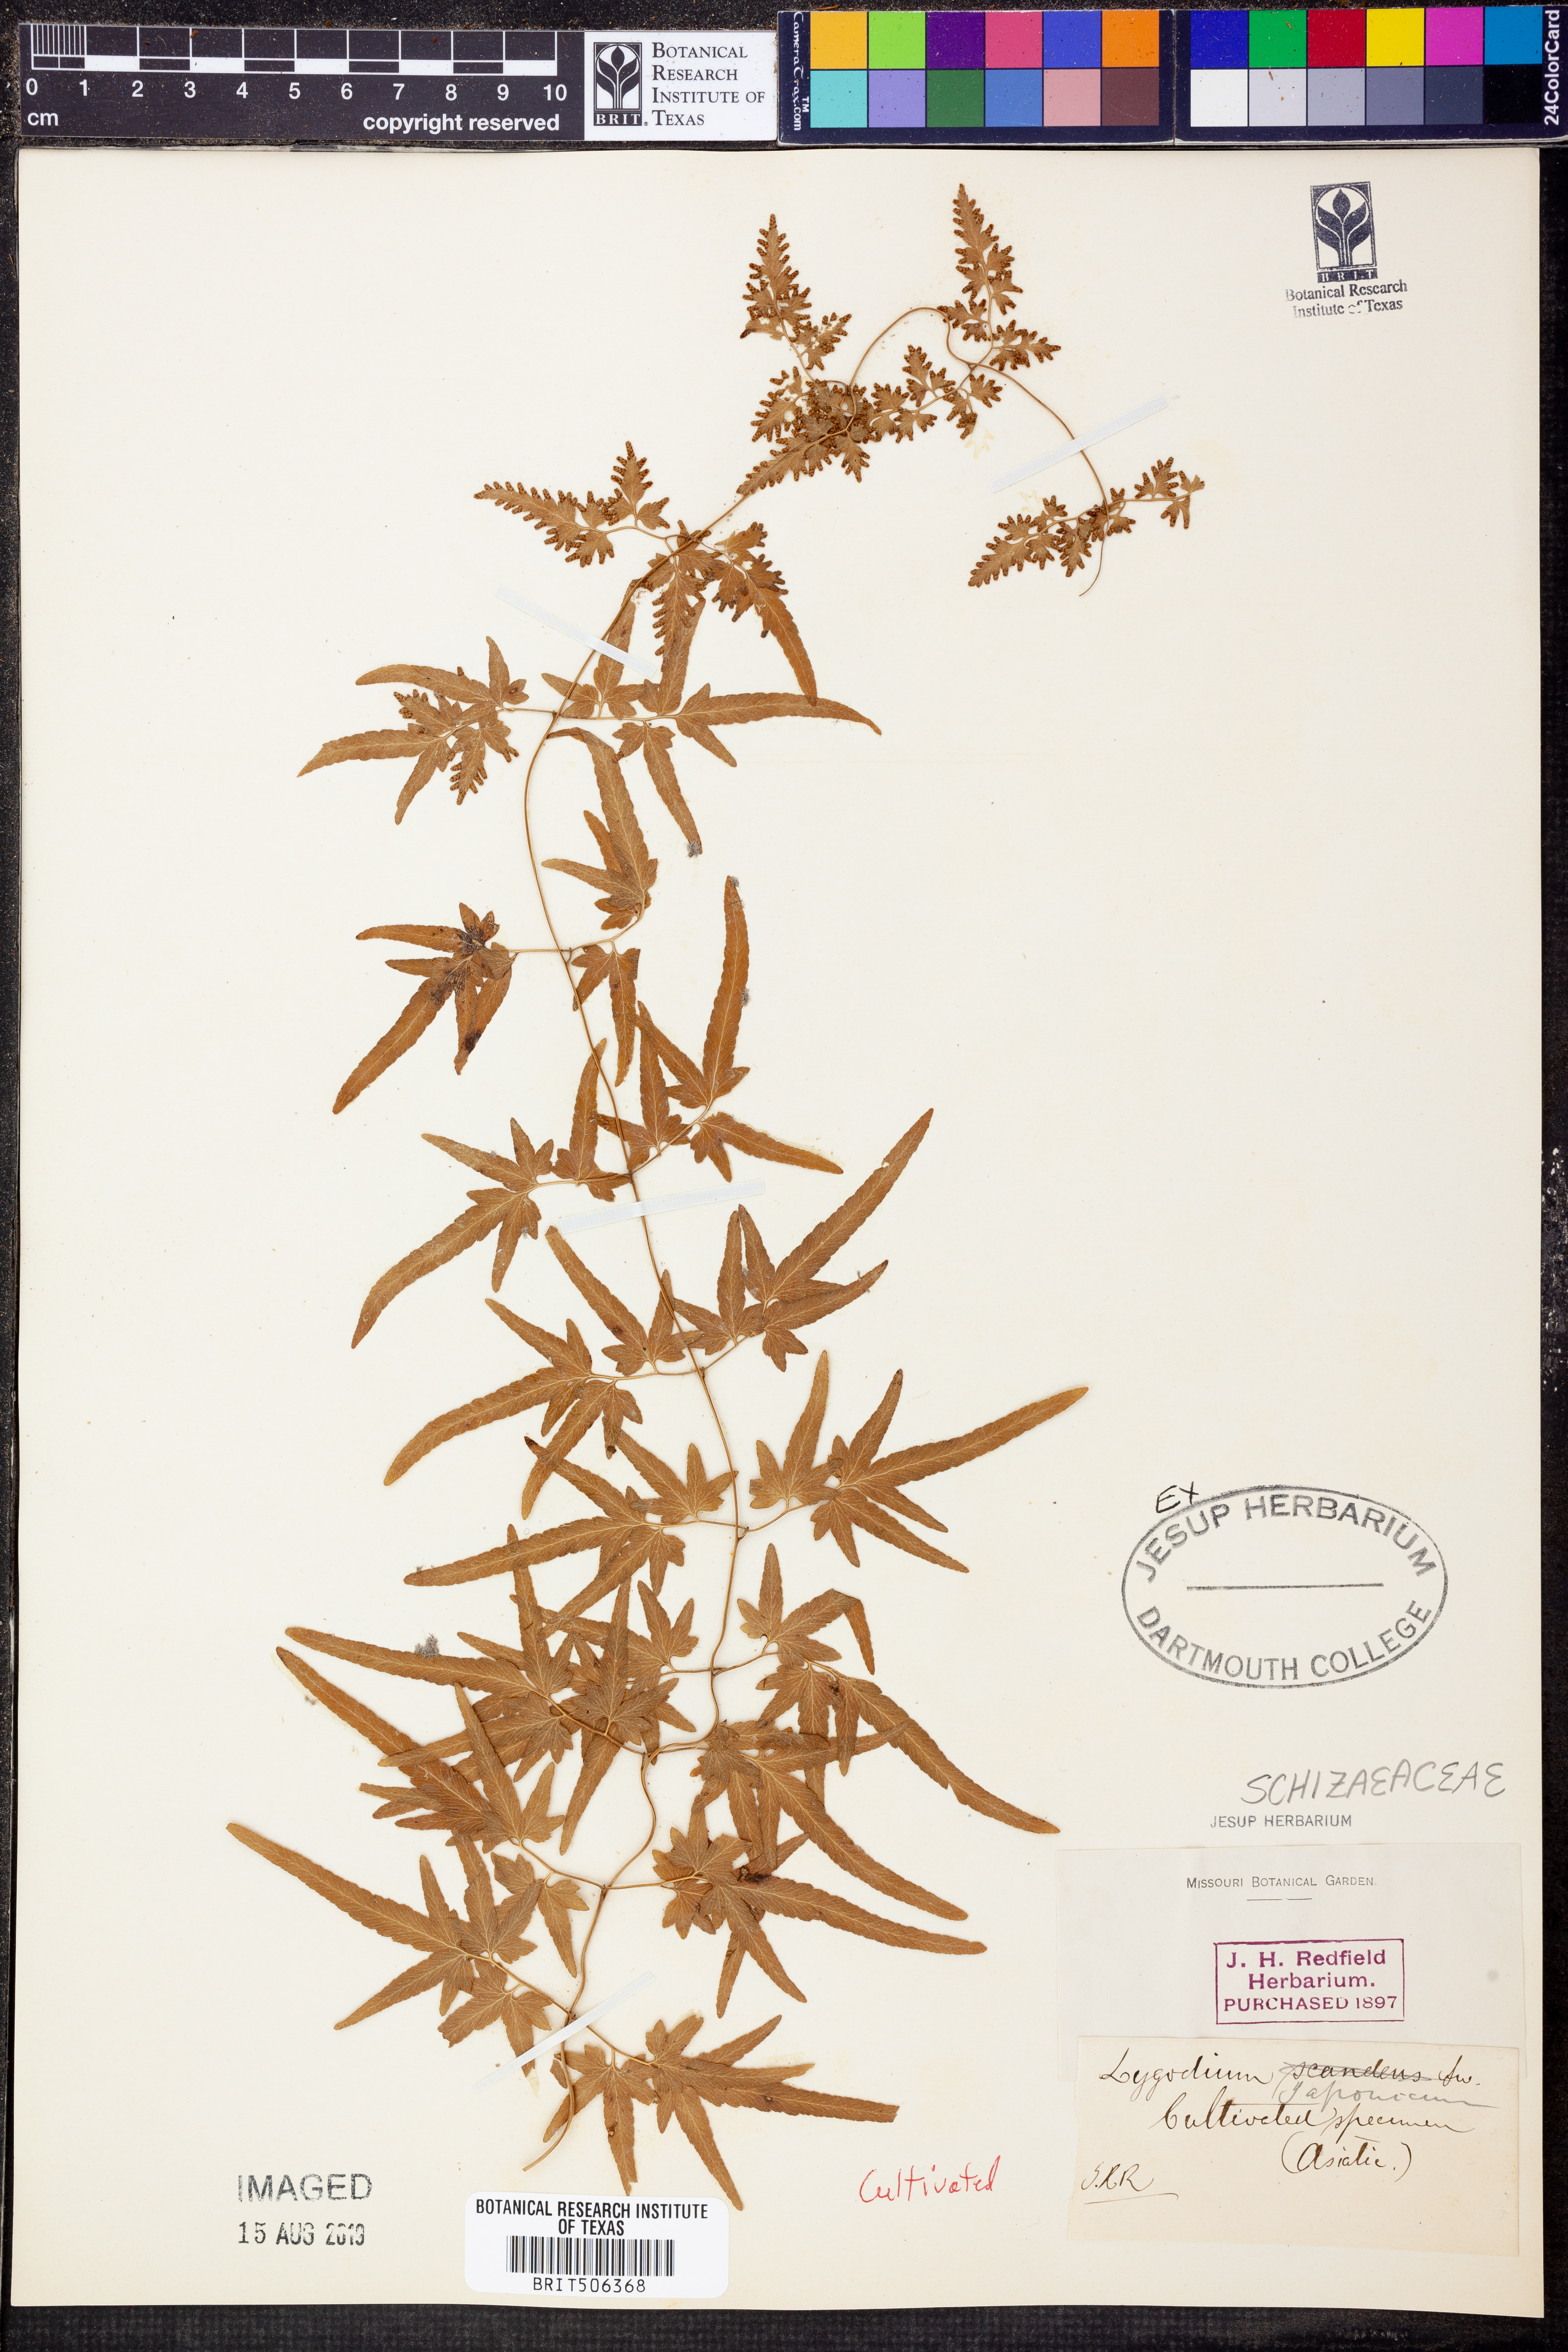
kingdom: Plantae
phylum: Tracheophyta
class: Polypodiopsida
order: Schizaeales
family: Lygodiaceae
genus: Lygodium
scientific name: Lygodium japonicum
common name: Japanese climbing fern
